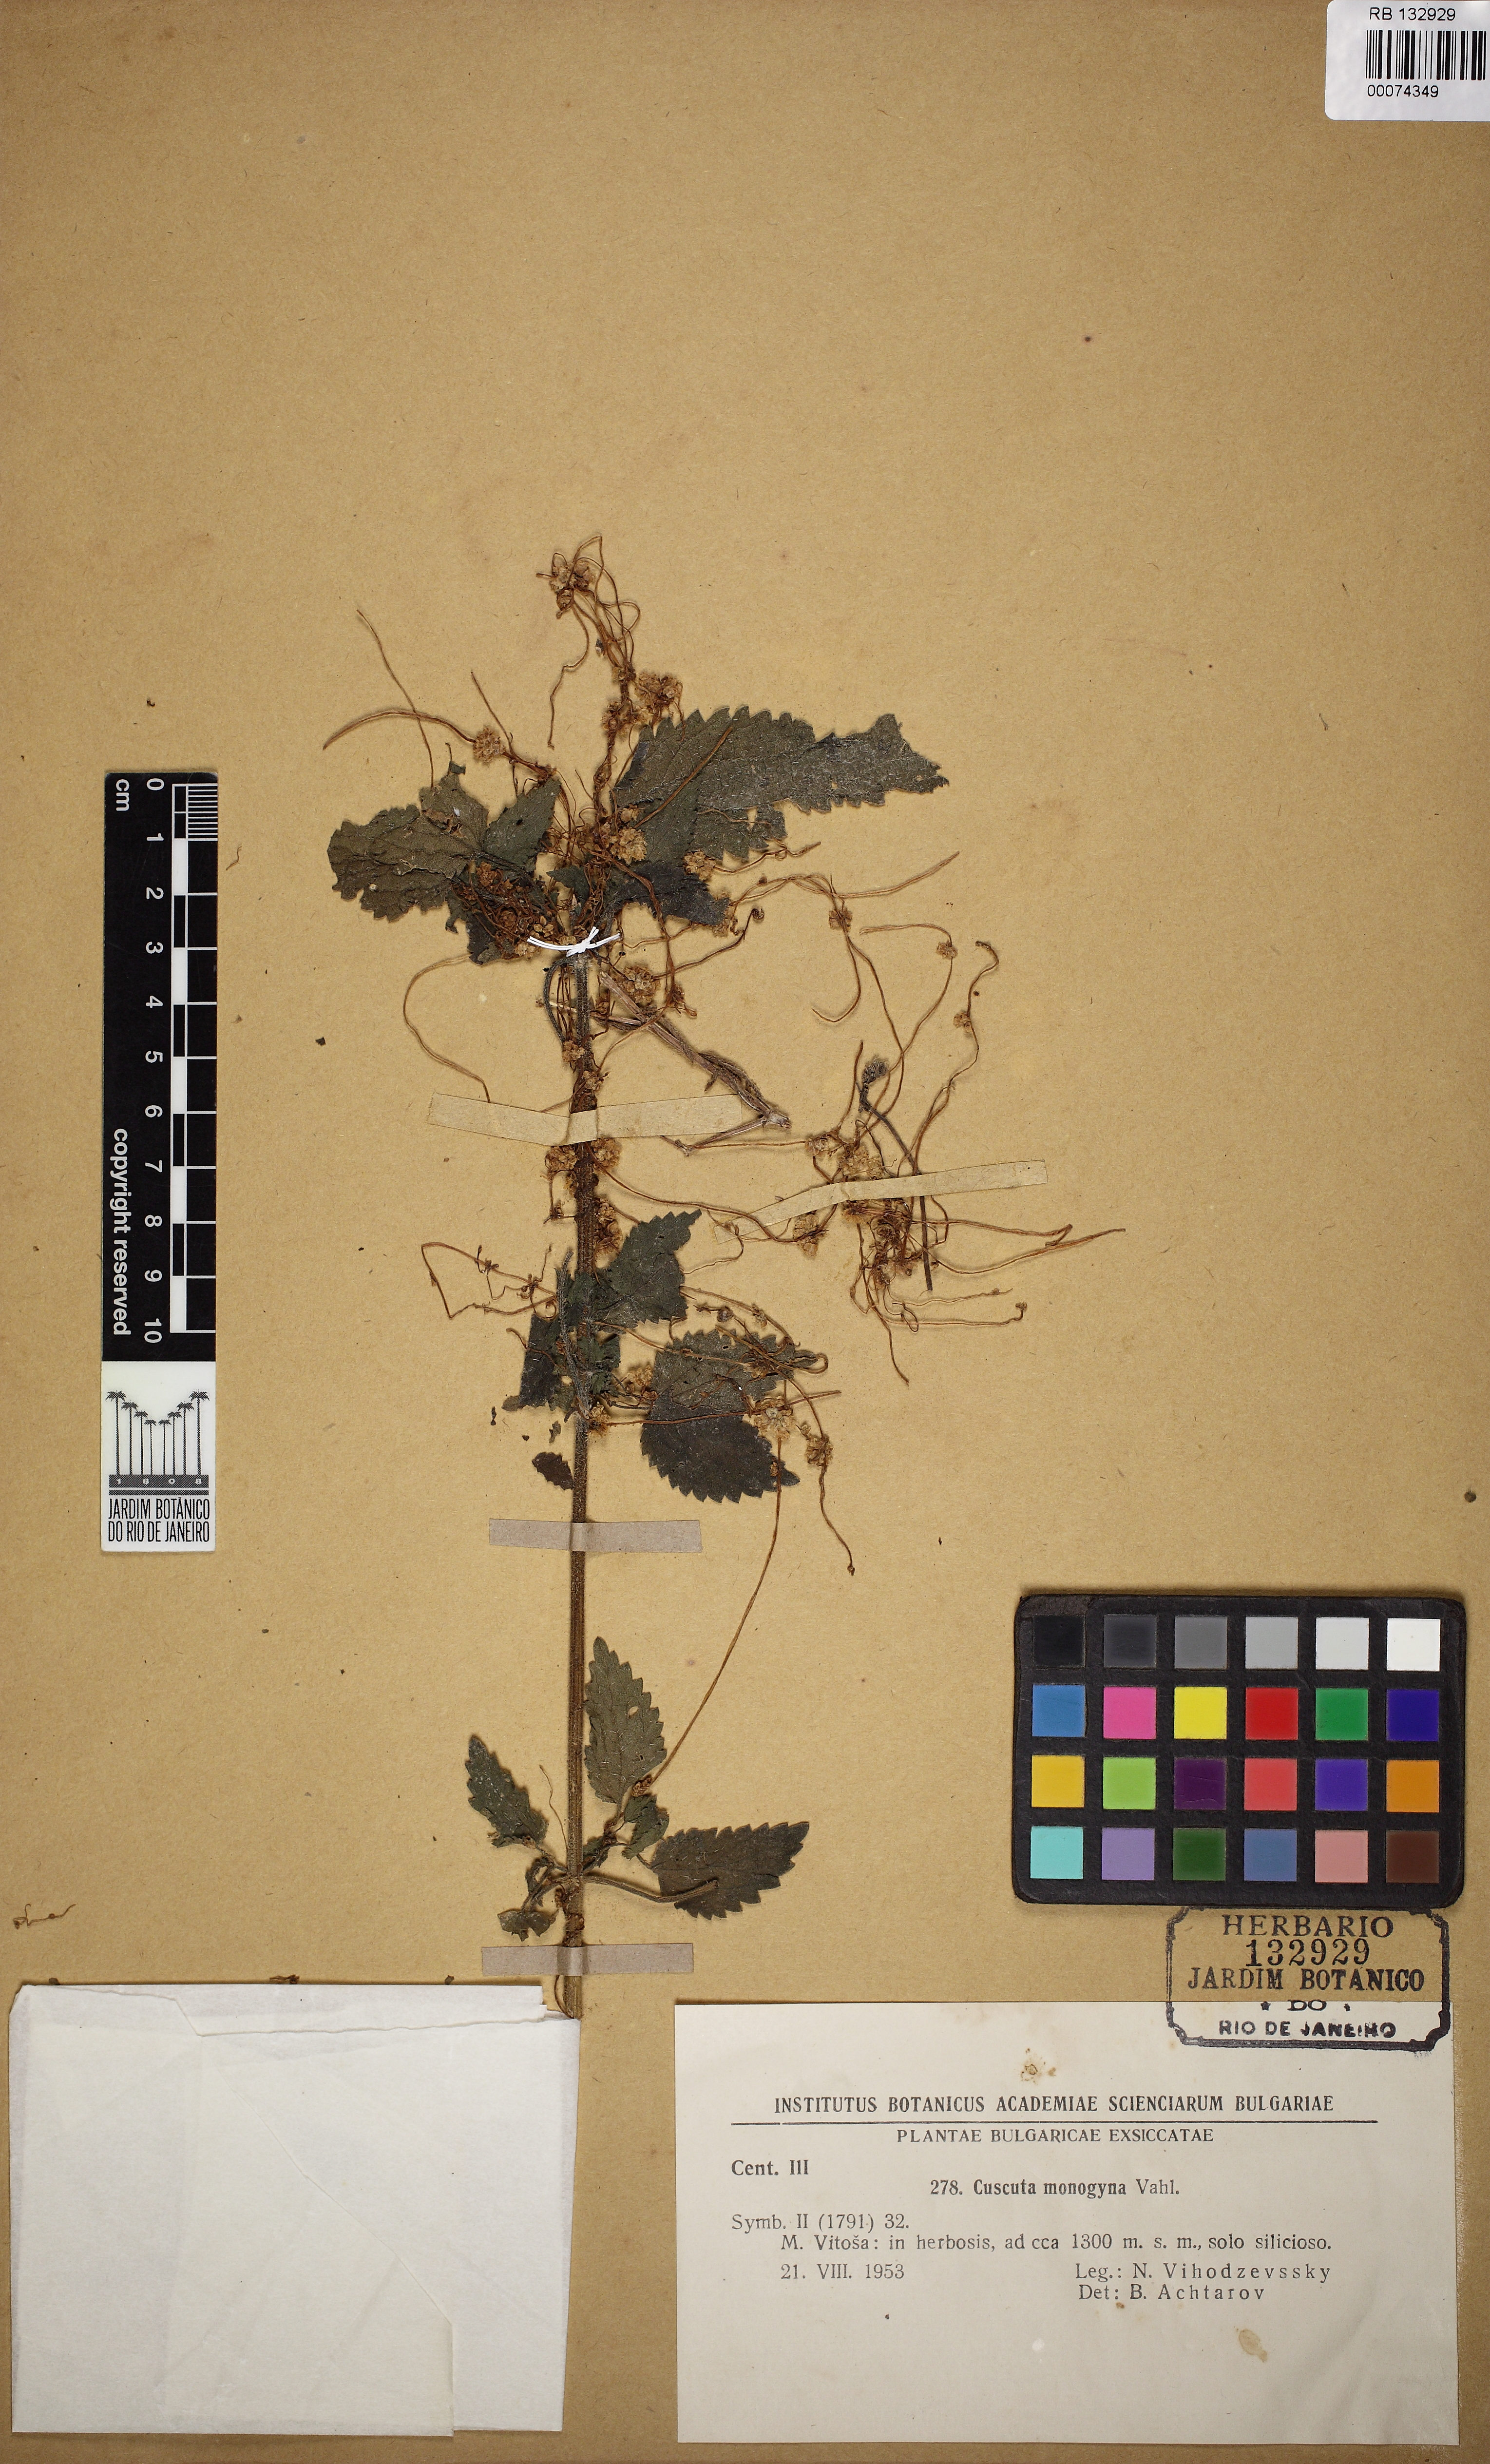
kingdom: Plantae
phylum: Tracheophyta
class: Magnoliopsida
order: Solanales
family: Convolvulaceae
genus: Cuscuta
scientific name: Cuscuta monogyna
